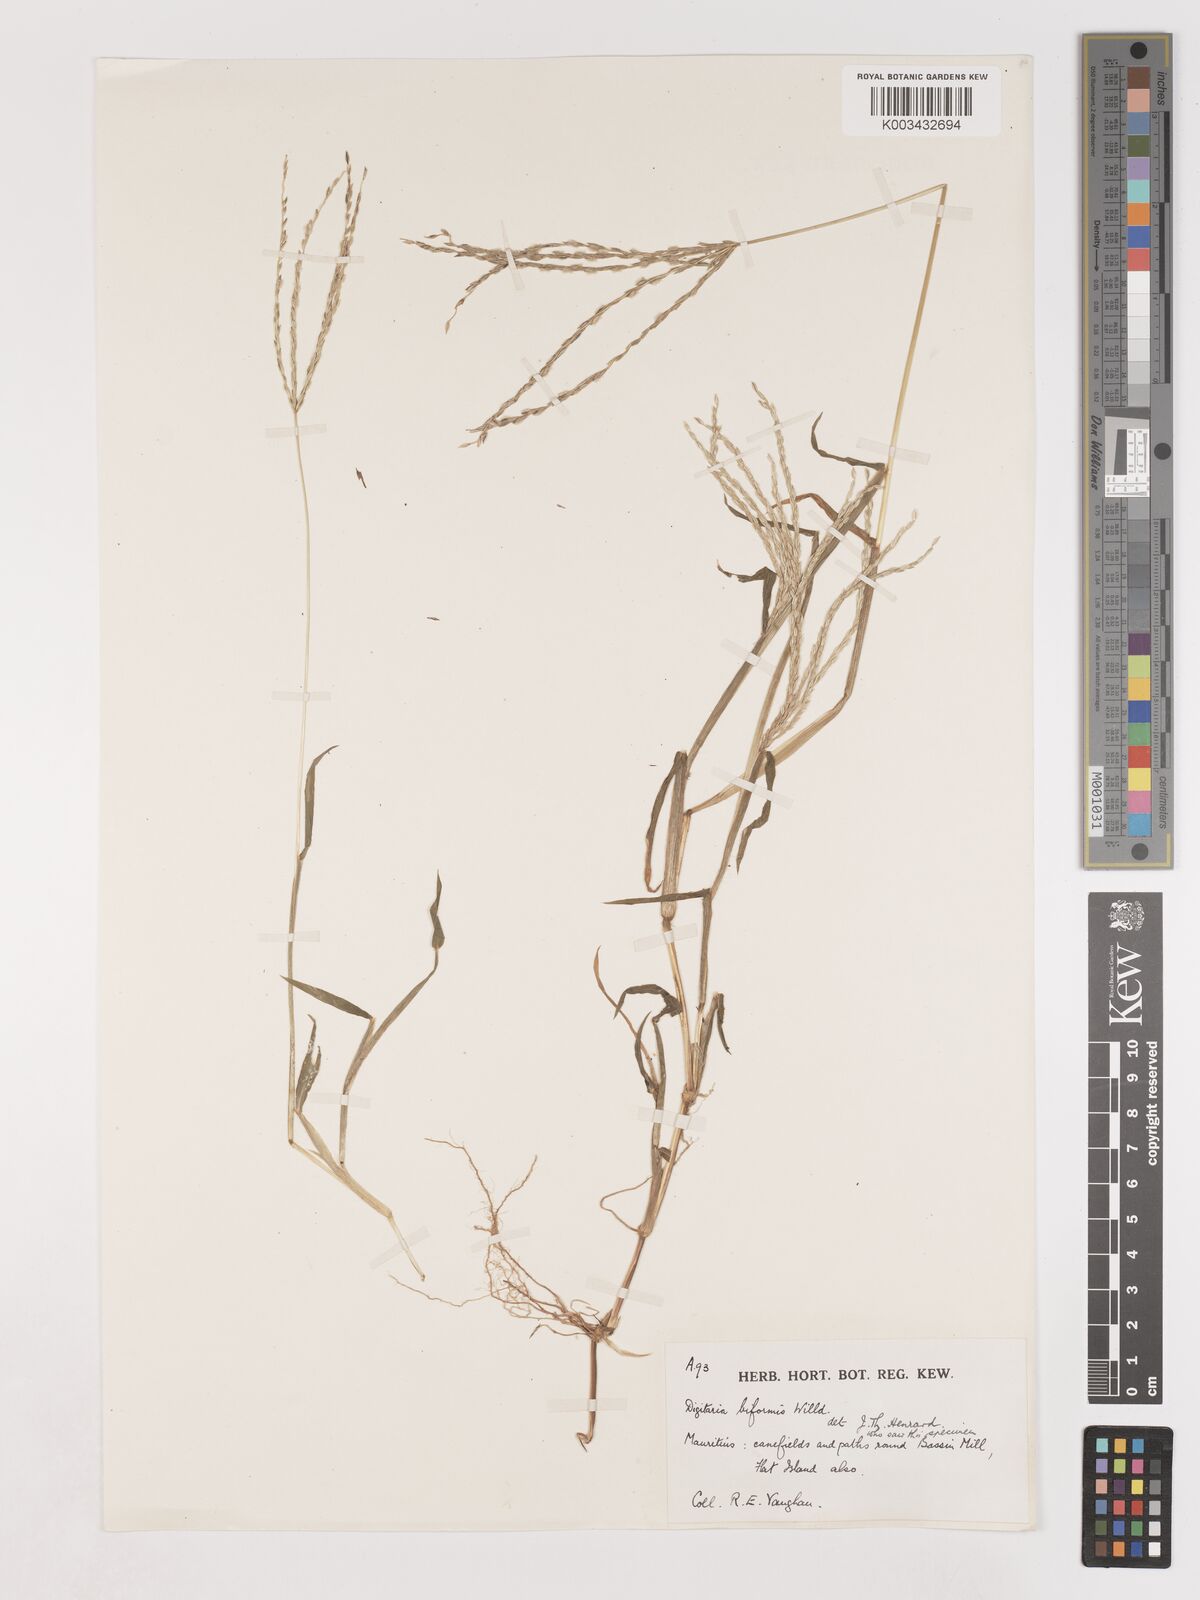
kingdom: Plantae
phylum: Tracheophyta
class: Liliopsida
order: Poales
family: Poaceae
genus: Digitaria
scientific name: Digitaria ciliaris
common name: Tropical finger-grass
